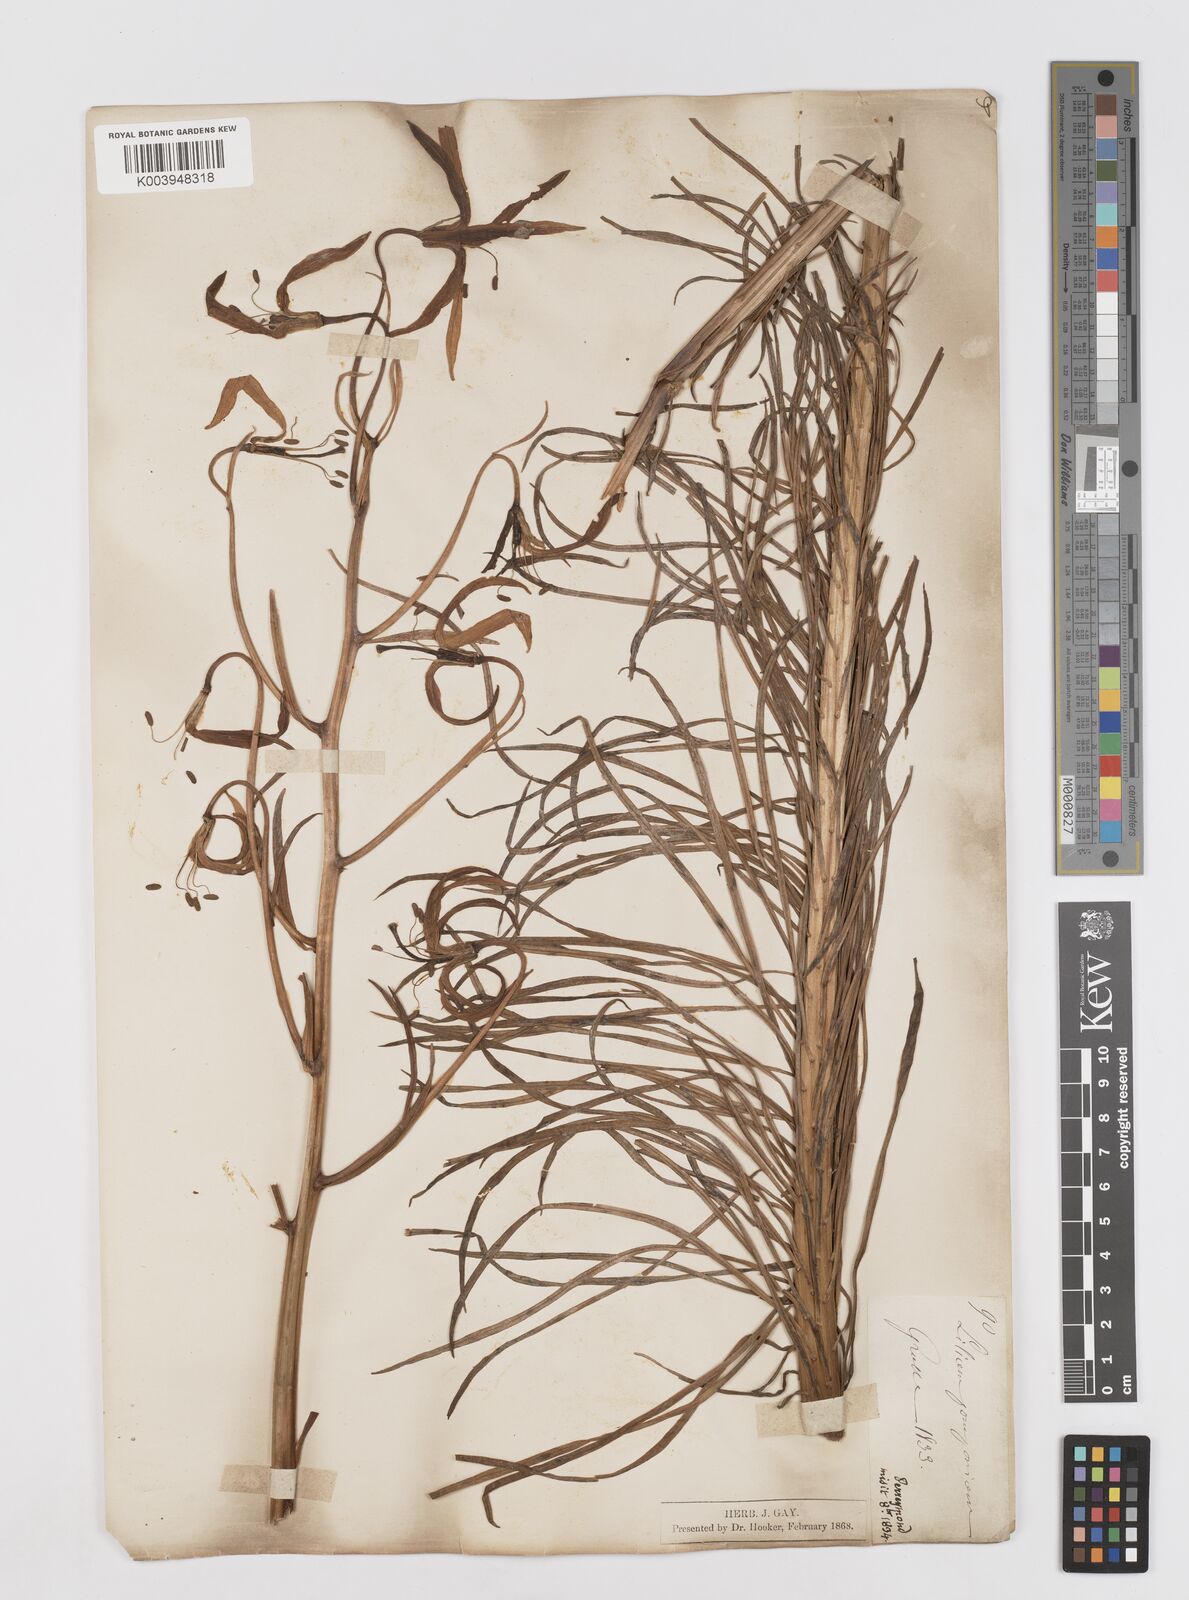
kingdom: Plantae
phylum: Tracheophyta
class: Liliopsida
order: Liliales
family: Liliaceae
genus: Lilium
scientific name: Lilium pomponium
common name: Minor turk's-cap lily
